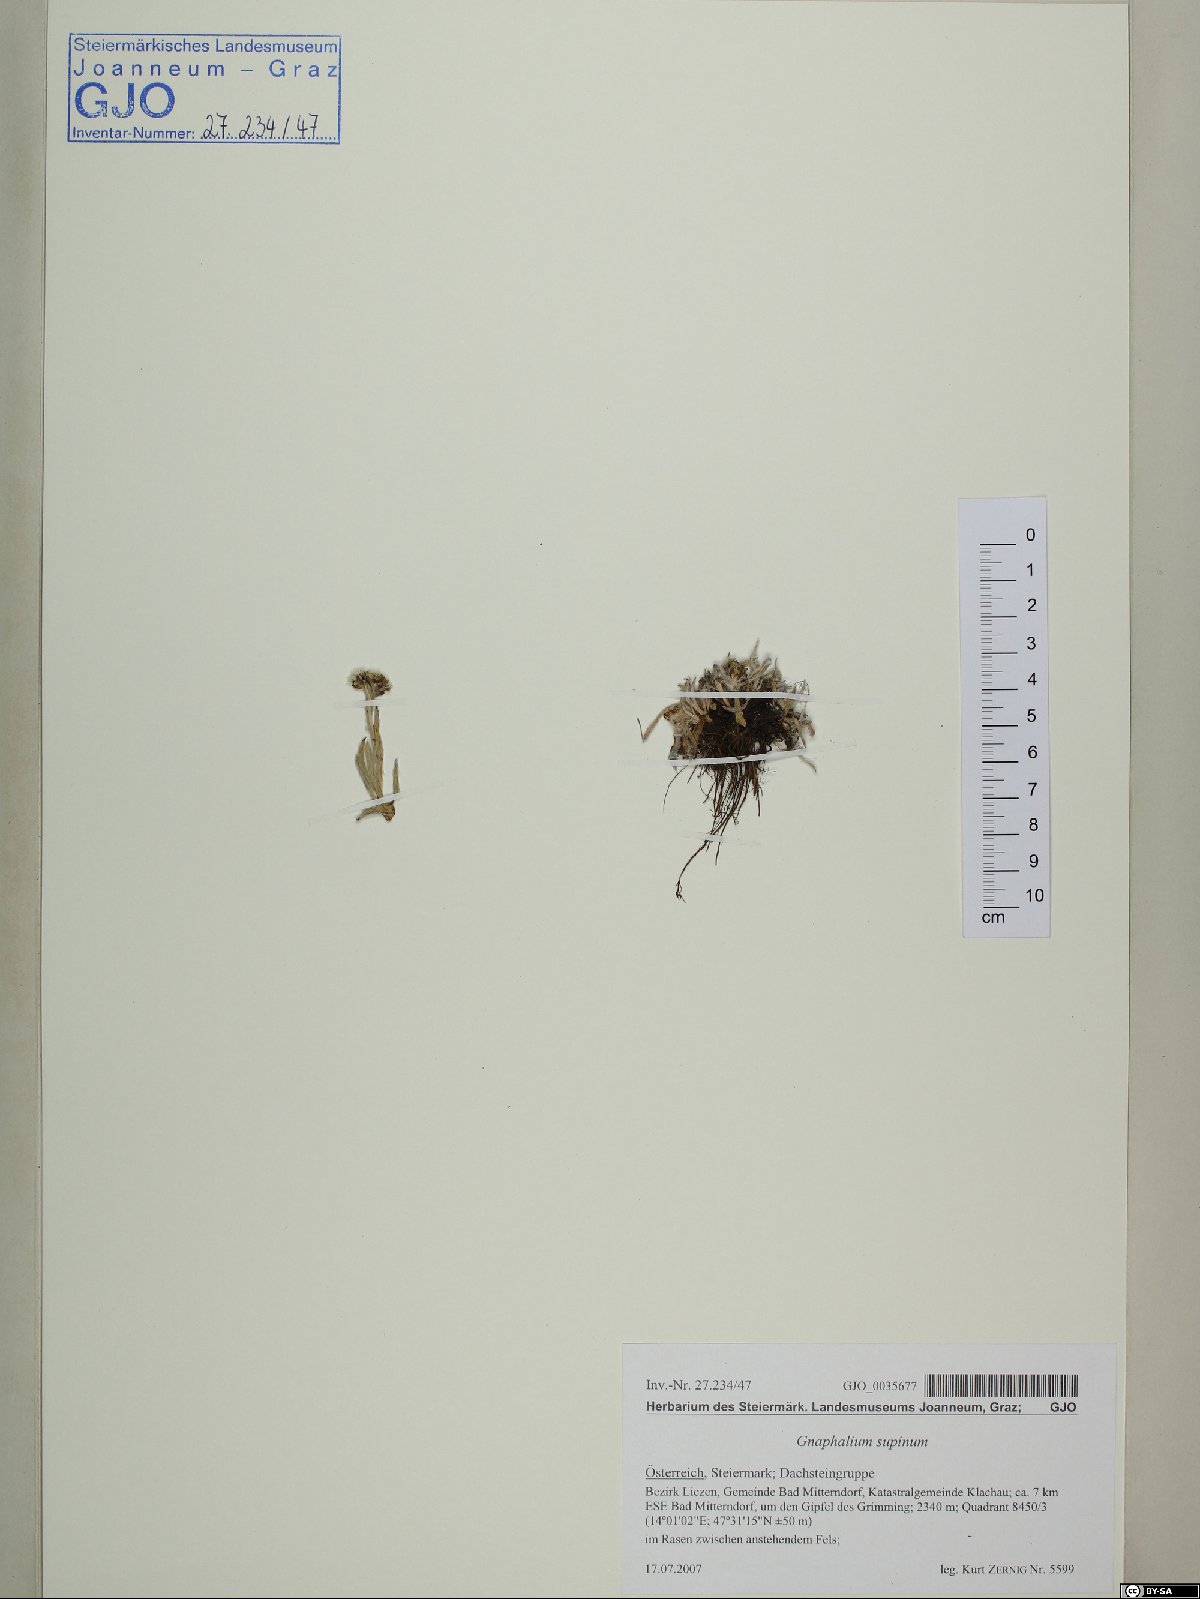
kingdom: Plantae
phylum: Tracheophyta
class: Magnoliopsida
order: Asterales
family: Asteraceae
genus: Omalotheca
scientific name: Omalotheca supina
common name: Alpine arctic-cudweed
